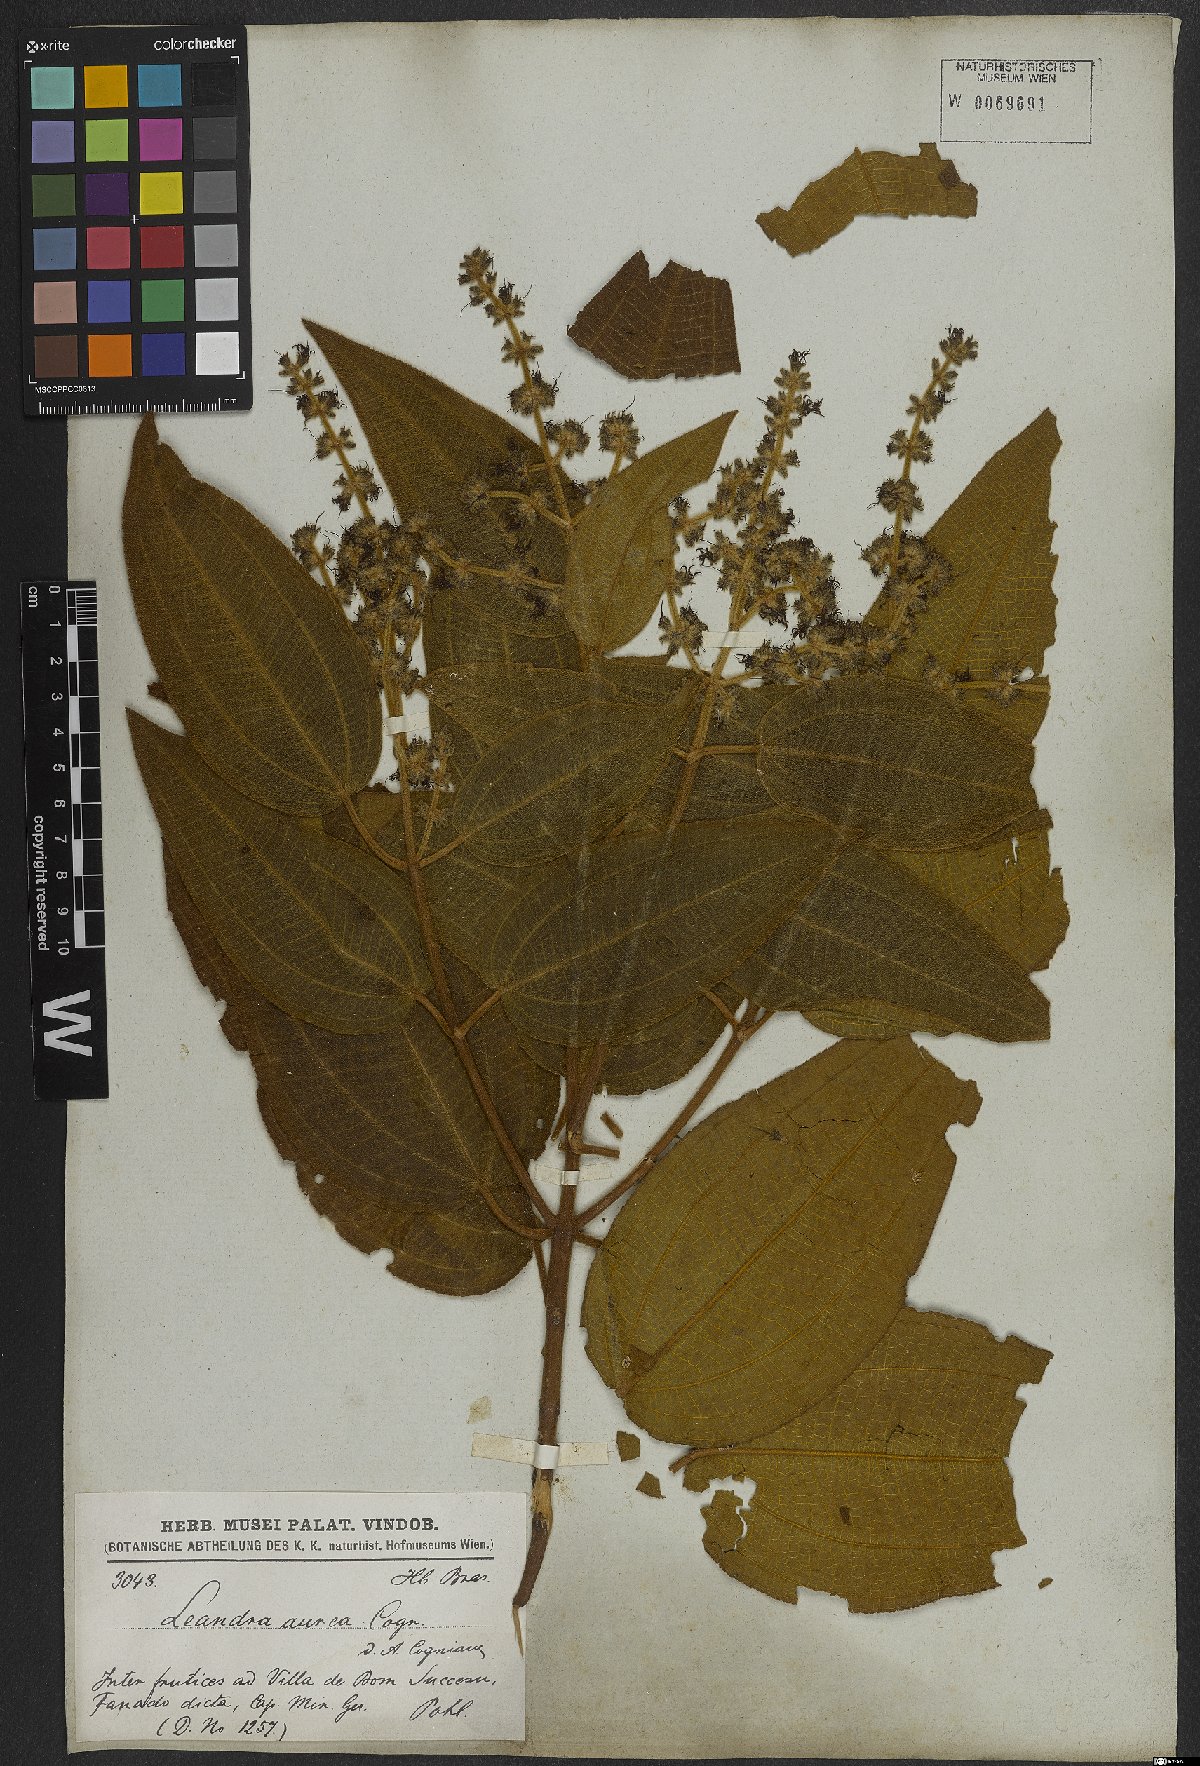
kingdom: Plantae
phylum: Tracheophyta
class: Magnoliopsida
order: Myrtales
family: Melastomataceae
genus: Miconia
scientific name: Miconia auricoma
